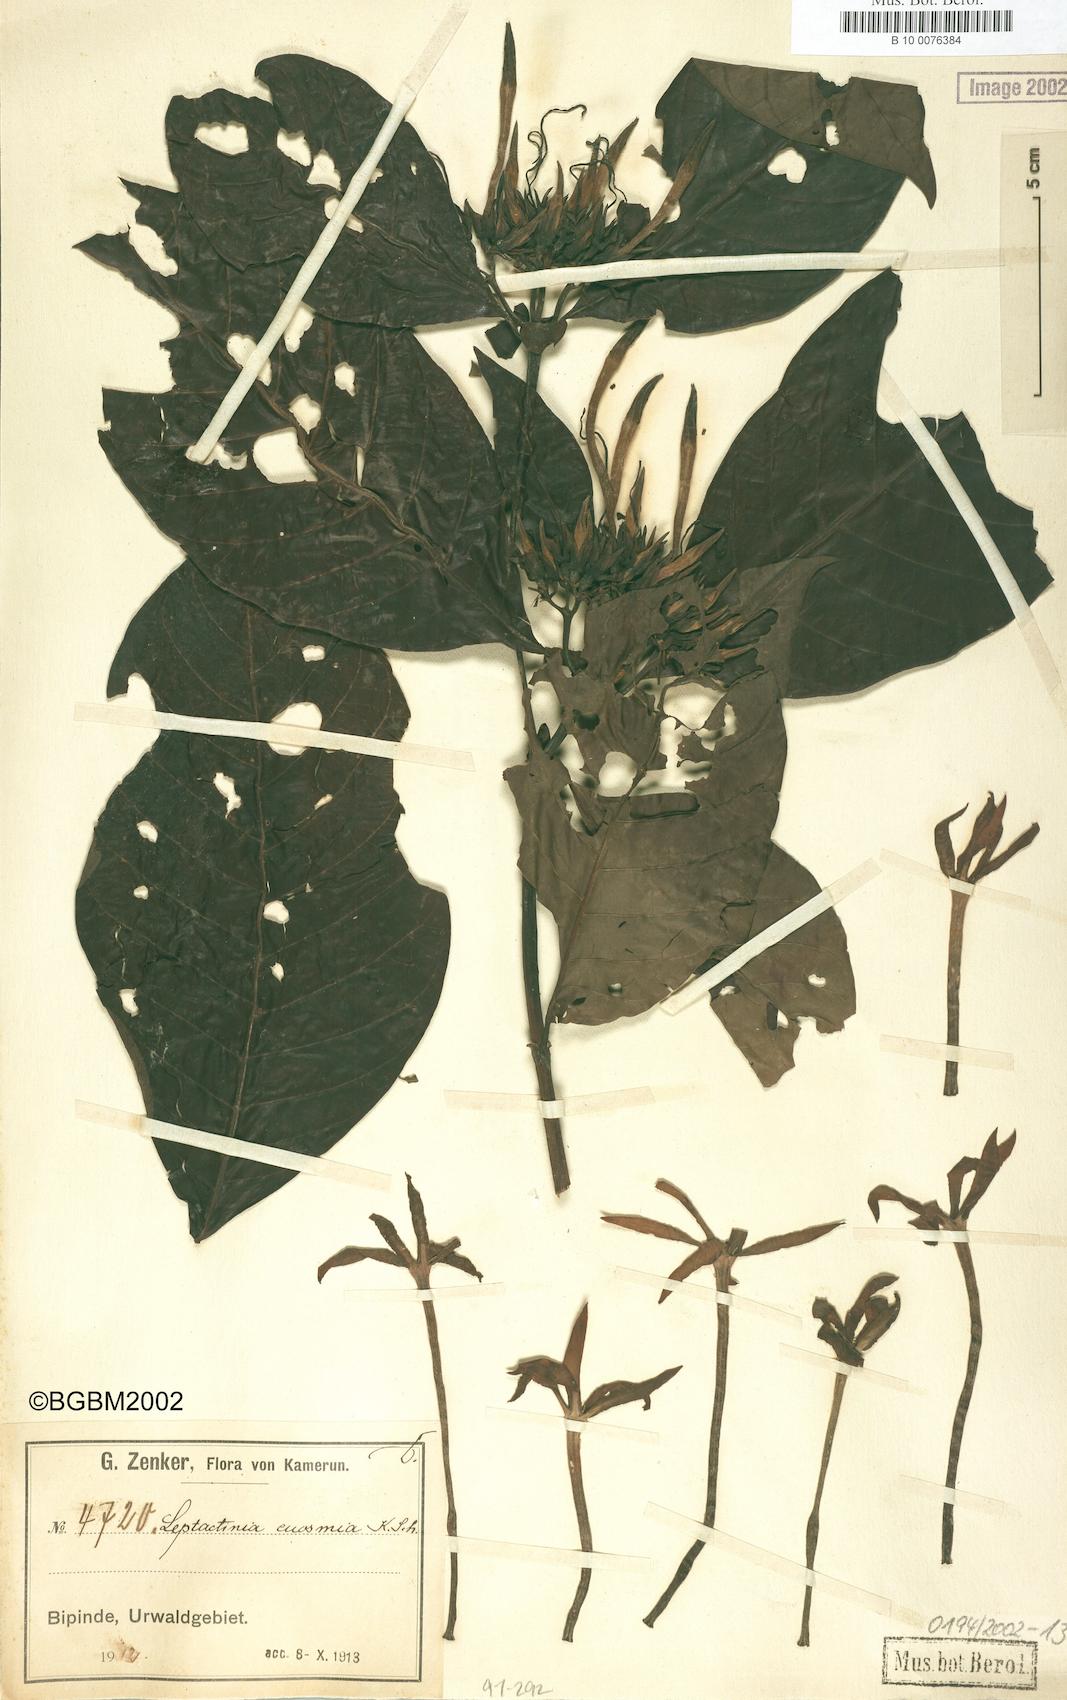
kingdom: Plantae
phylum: Tracheophyta
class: Magnoliopsida
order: Gentianales
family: Rubiaceae
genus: Leptactina
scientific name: Leptactina involucrata
